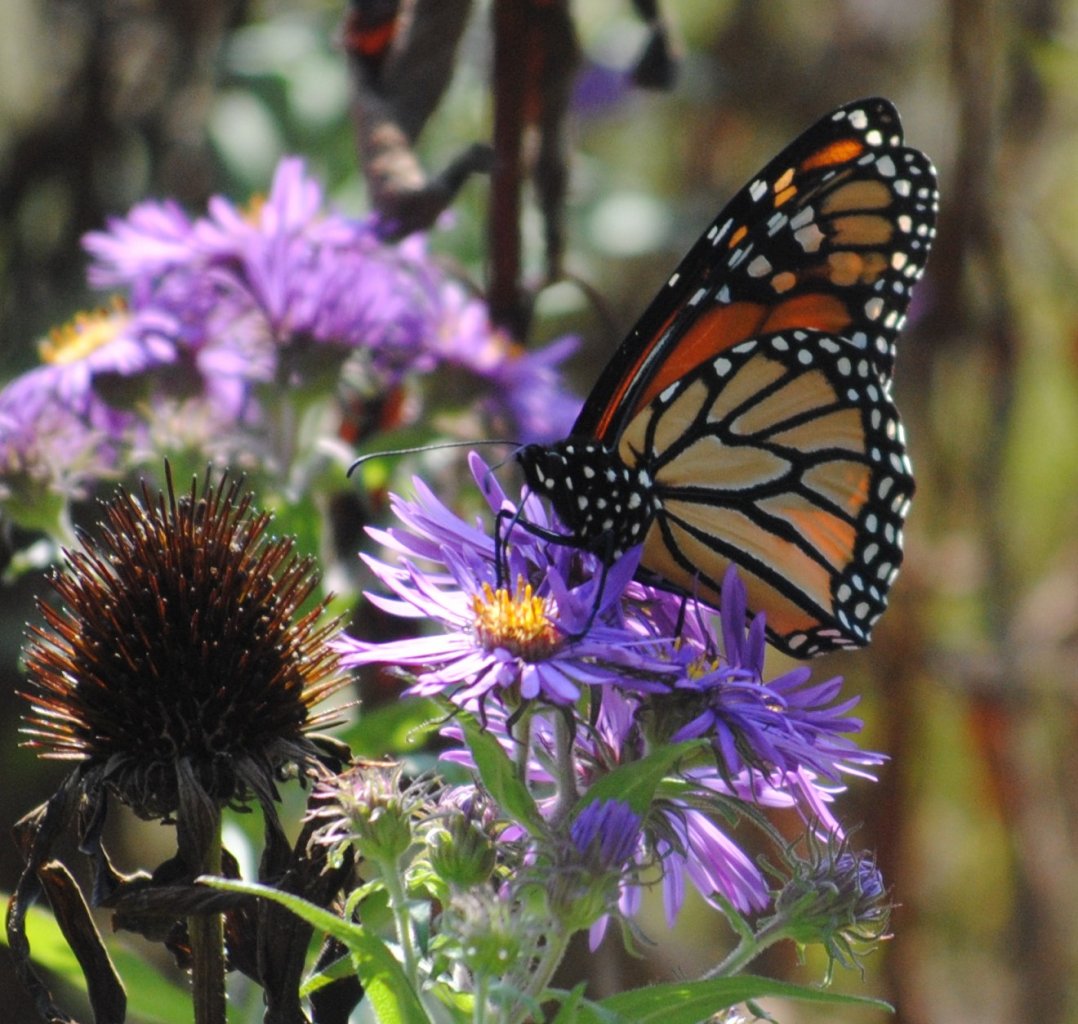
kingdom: Animalia
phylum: Arthropoda
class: Insecta
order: Lepidoptera
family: Nymphalidae
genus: Danaus
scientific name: Danaus plexippus
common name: Monarch
